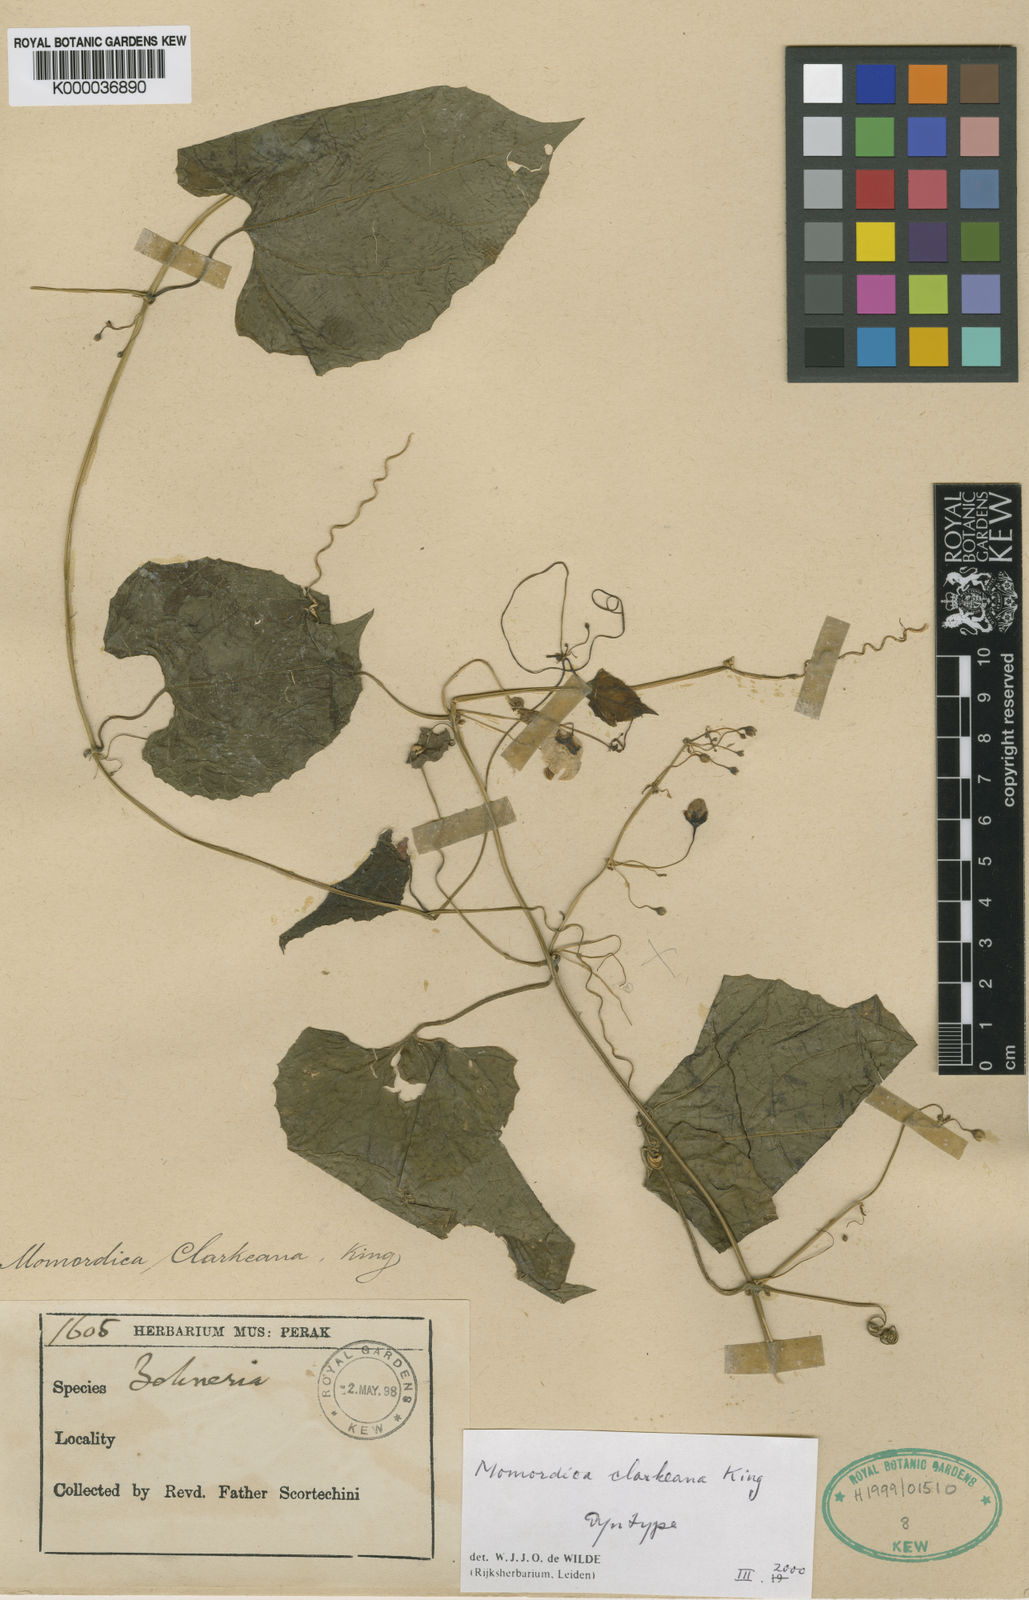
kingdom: Plantae
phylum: Tracheophyta
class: Magnoliopsida
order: Cucurbitales
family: Cucurbitaceae
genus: Momordica
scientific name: Momordica clarkeana
